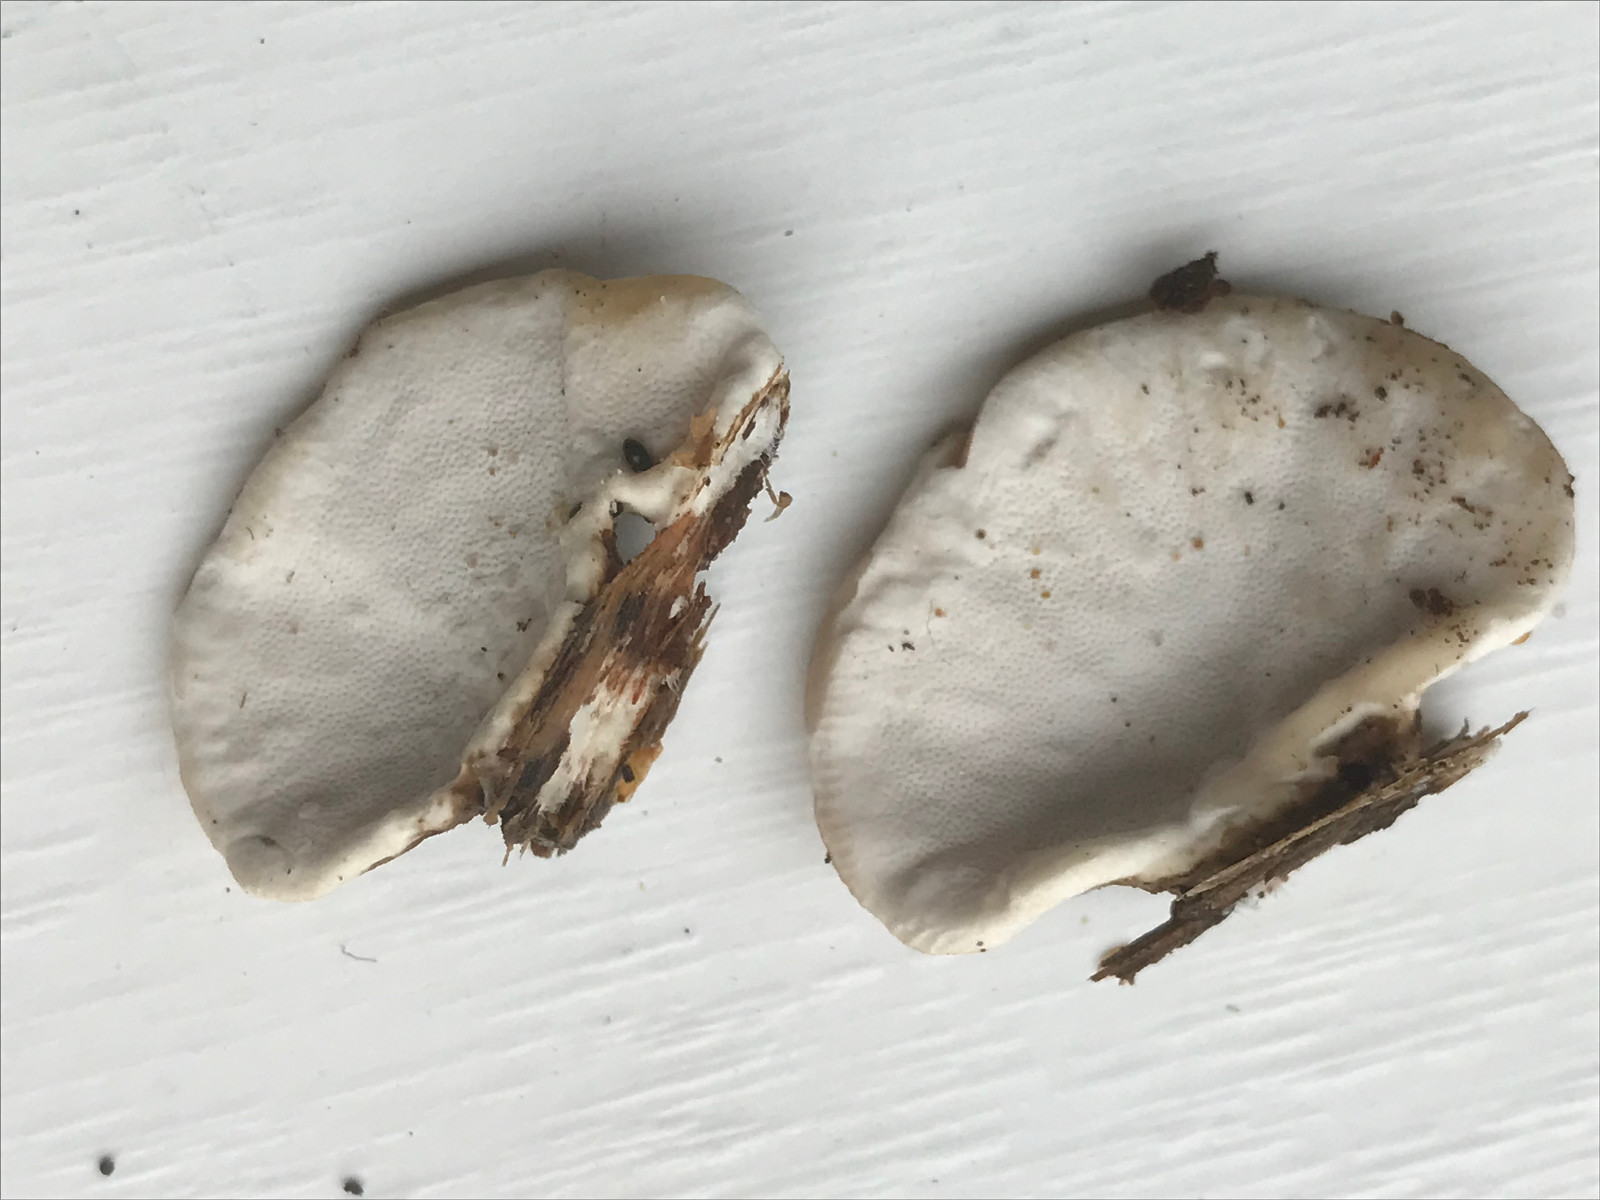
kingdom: Fungi
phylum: Basidiomycota
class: Agaricomycetes
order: Polyporales
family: Polyporaceae
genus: Trametes
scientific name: Trametes versicolor
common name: broget læderporesvamp
